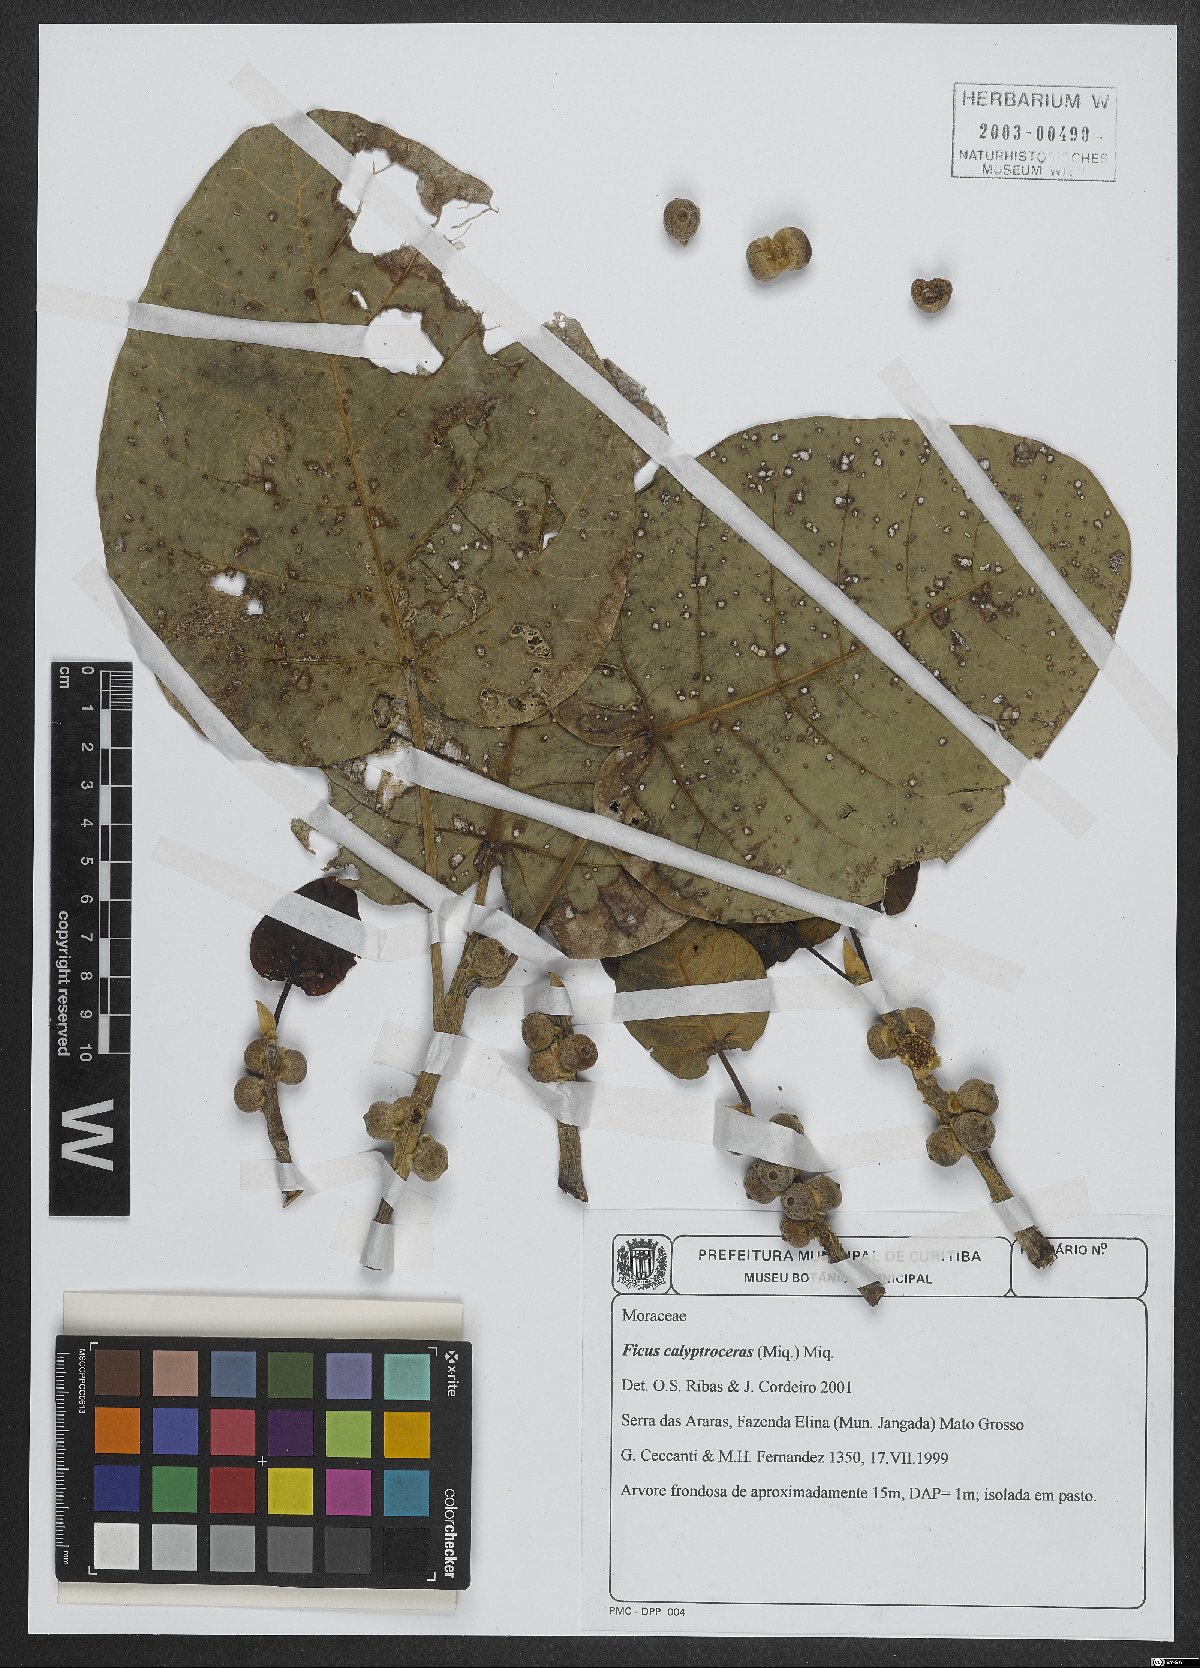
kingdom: Plantae
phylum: Tracheophyta
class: Magnoliopsida
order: Rosales
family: Moraceae
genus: Ficus
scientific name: Ficus calyptroceras
